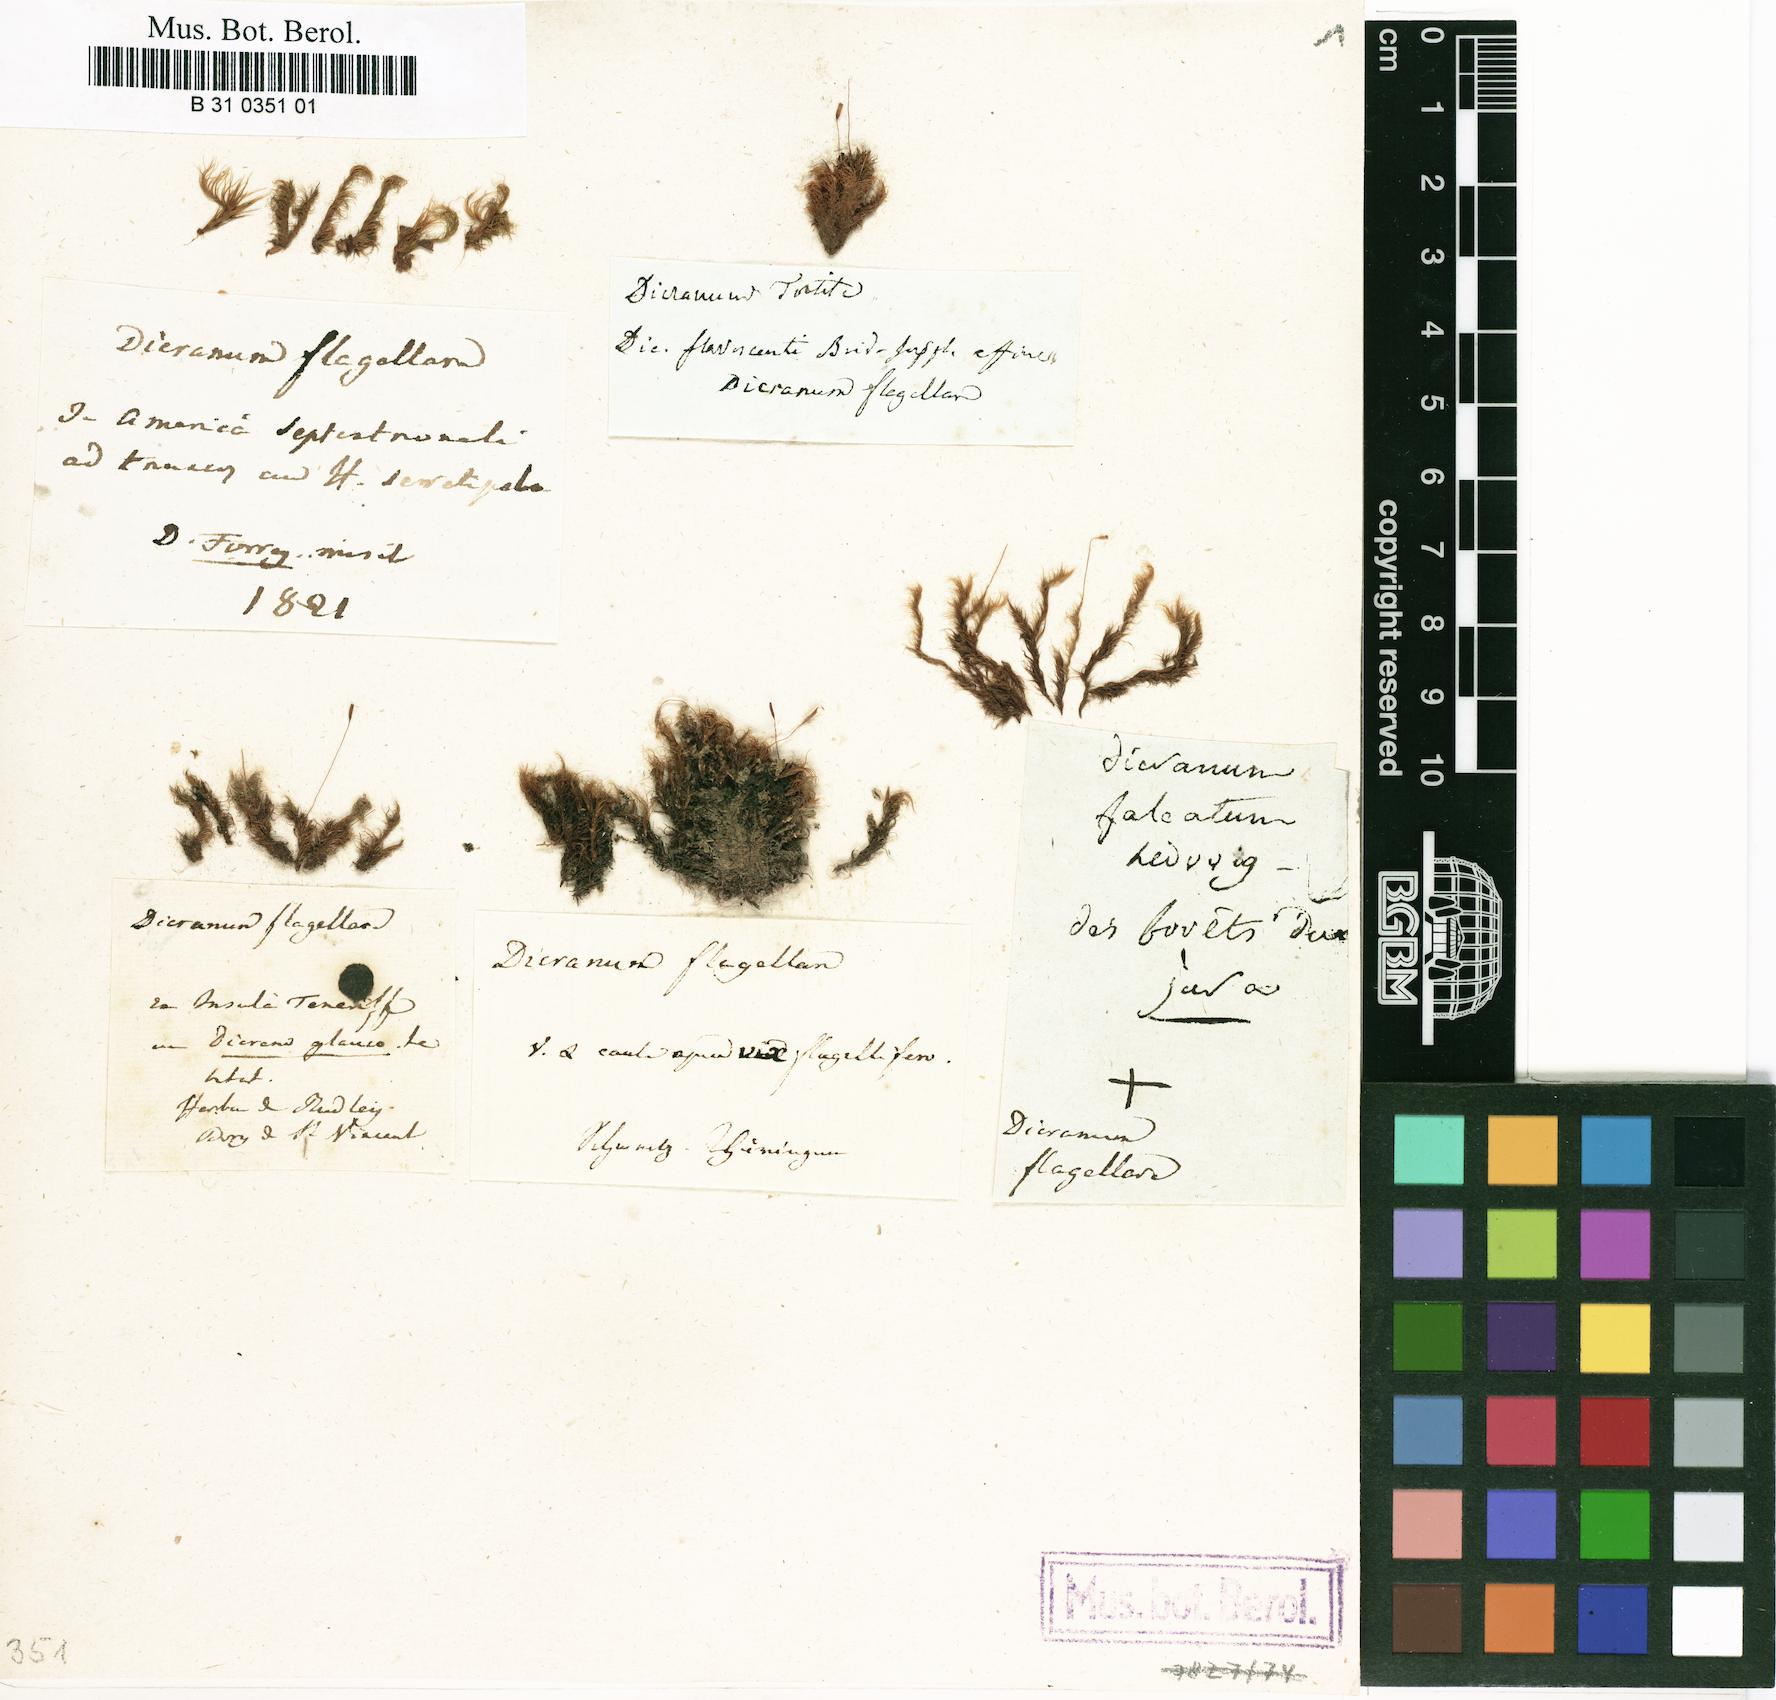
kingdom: Plantae
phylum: Bryophyta
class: Bryopsida
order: Dicranales
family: Dicranaceae
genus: Orthodicranum
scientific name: Orthodicranum flagellare
